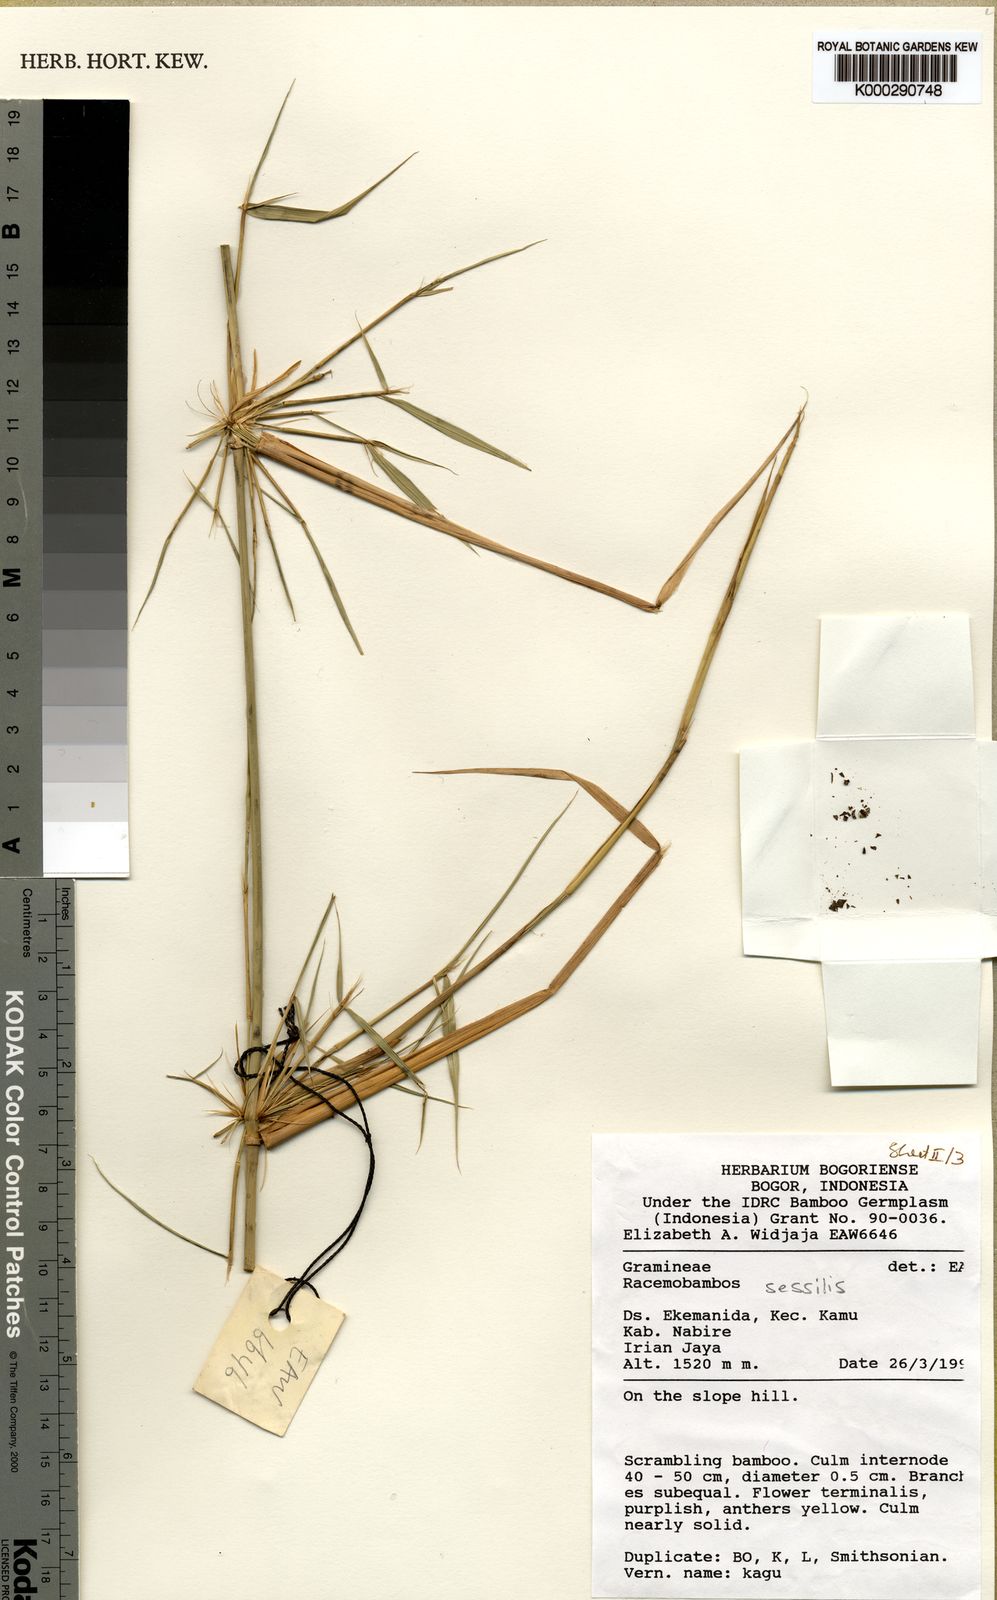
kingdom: Plantae
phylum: Tracheophyta
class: Liliopsida
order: Poales
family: Poaceae
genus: Racemobambos
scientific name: Racemobambos sessilis
